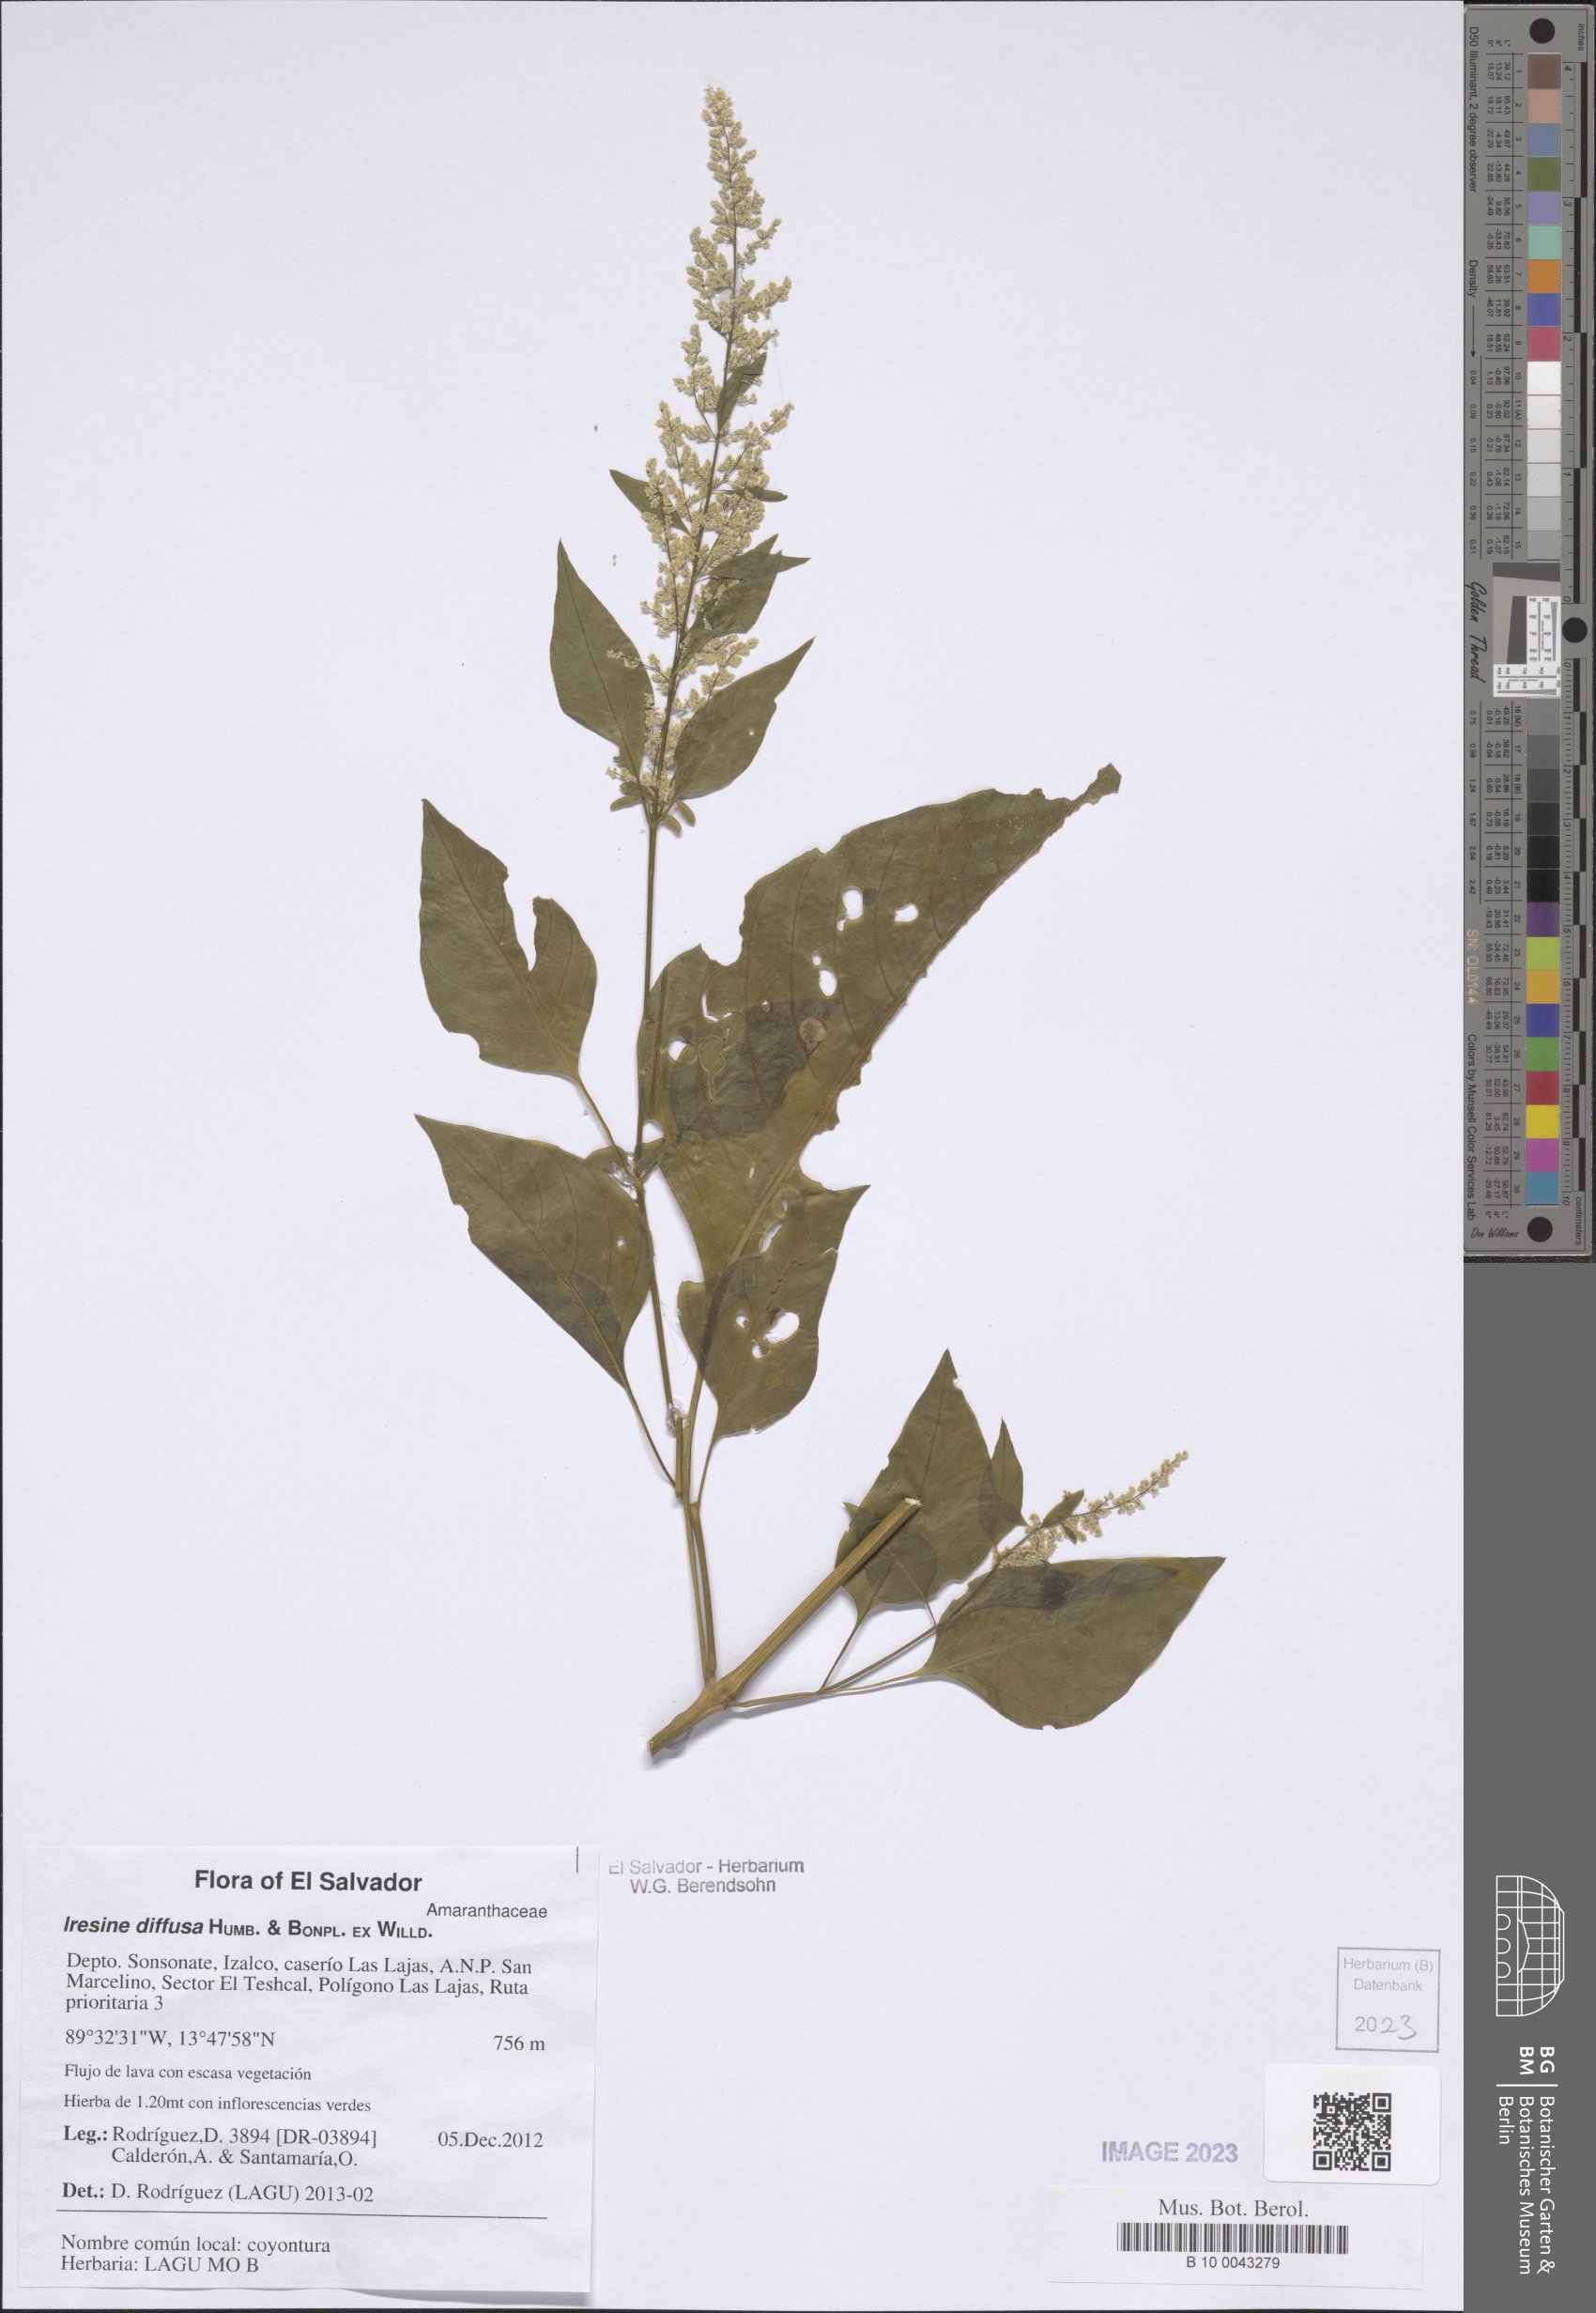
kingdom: Plantae
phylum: Tracheophyta
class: Magnoliopsida
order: Caryophyllales
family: Amaranthaceae
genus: Iresine
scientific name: Iresine diffusa
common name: Juba's-bush
